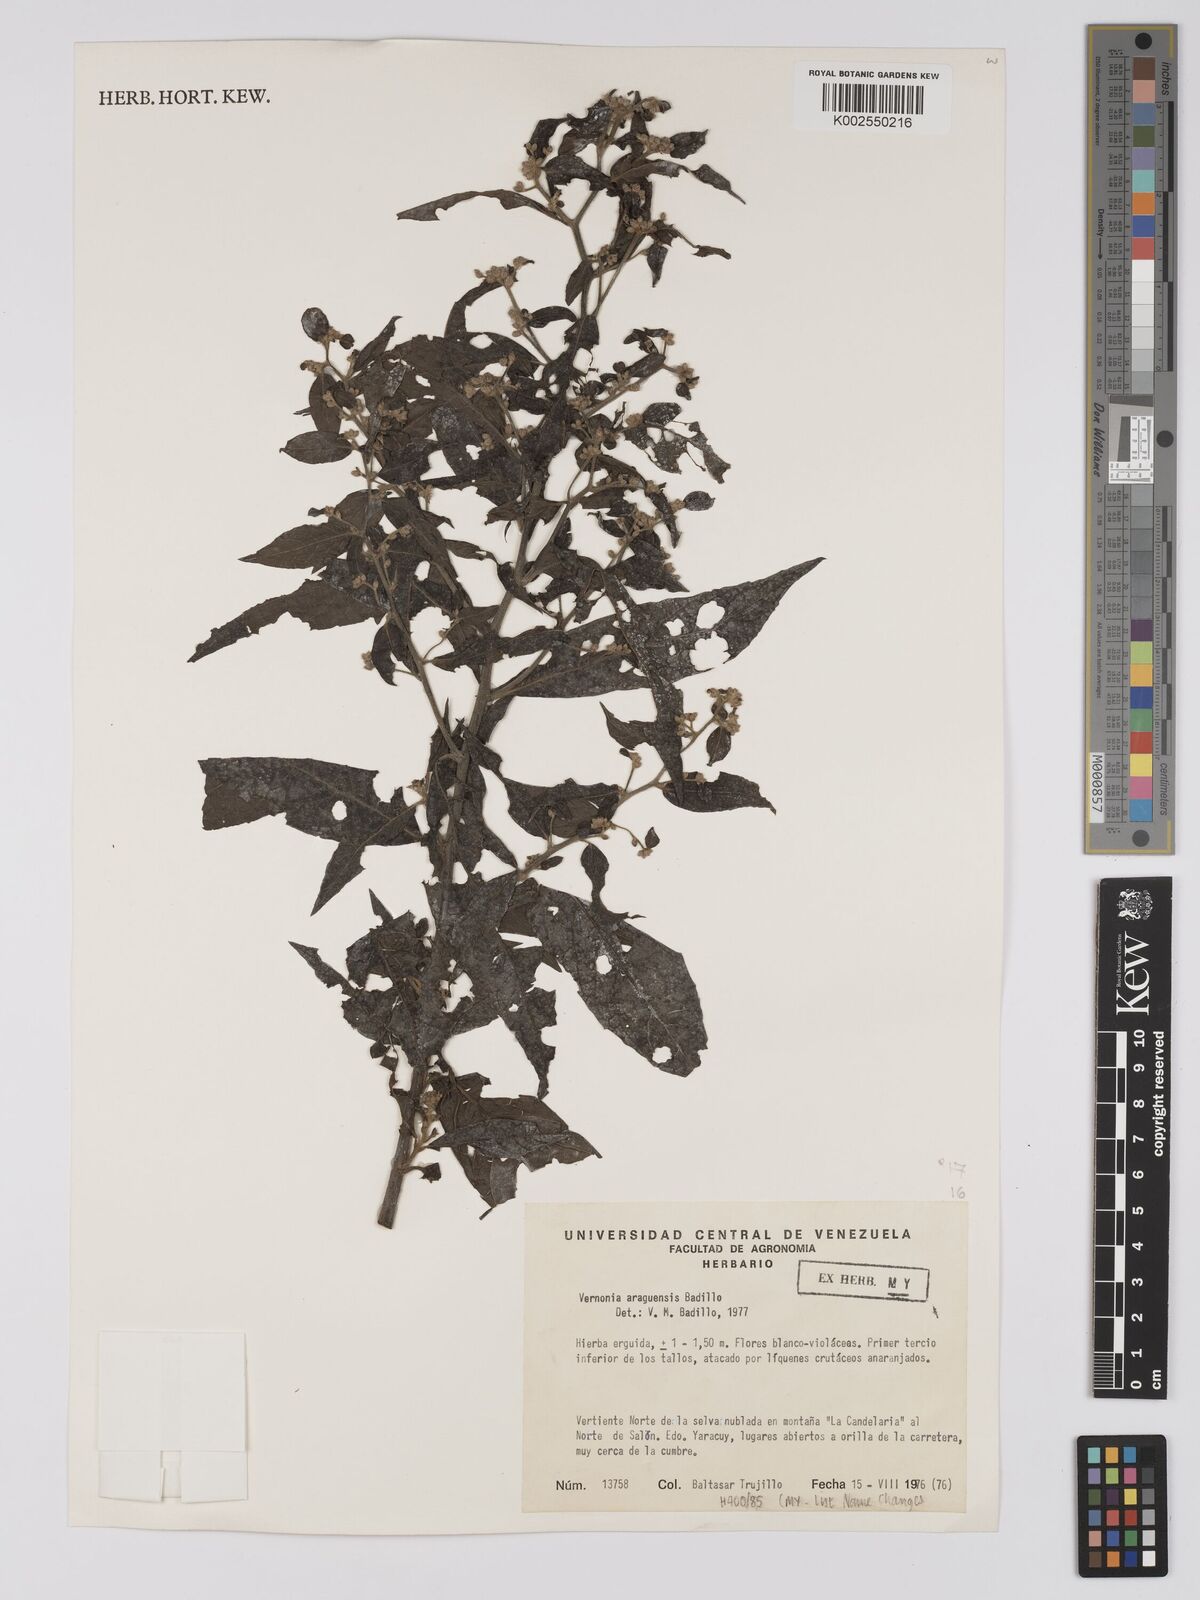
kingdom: Plantae
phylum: Tracheophyta
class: Magnoliopsida
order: Asterales
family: Asteraceae
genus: Lepidaploa
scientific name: Lepidaploa araguensis
